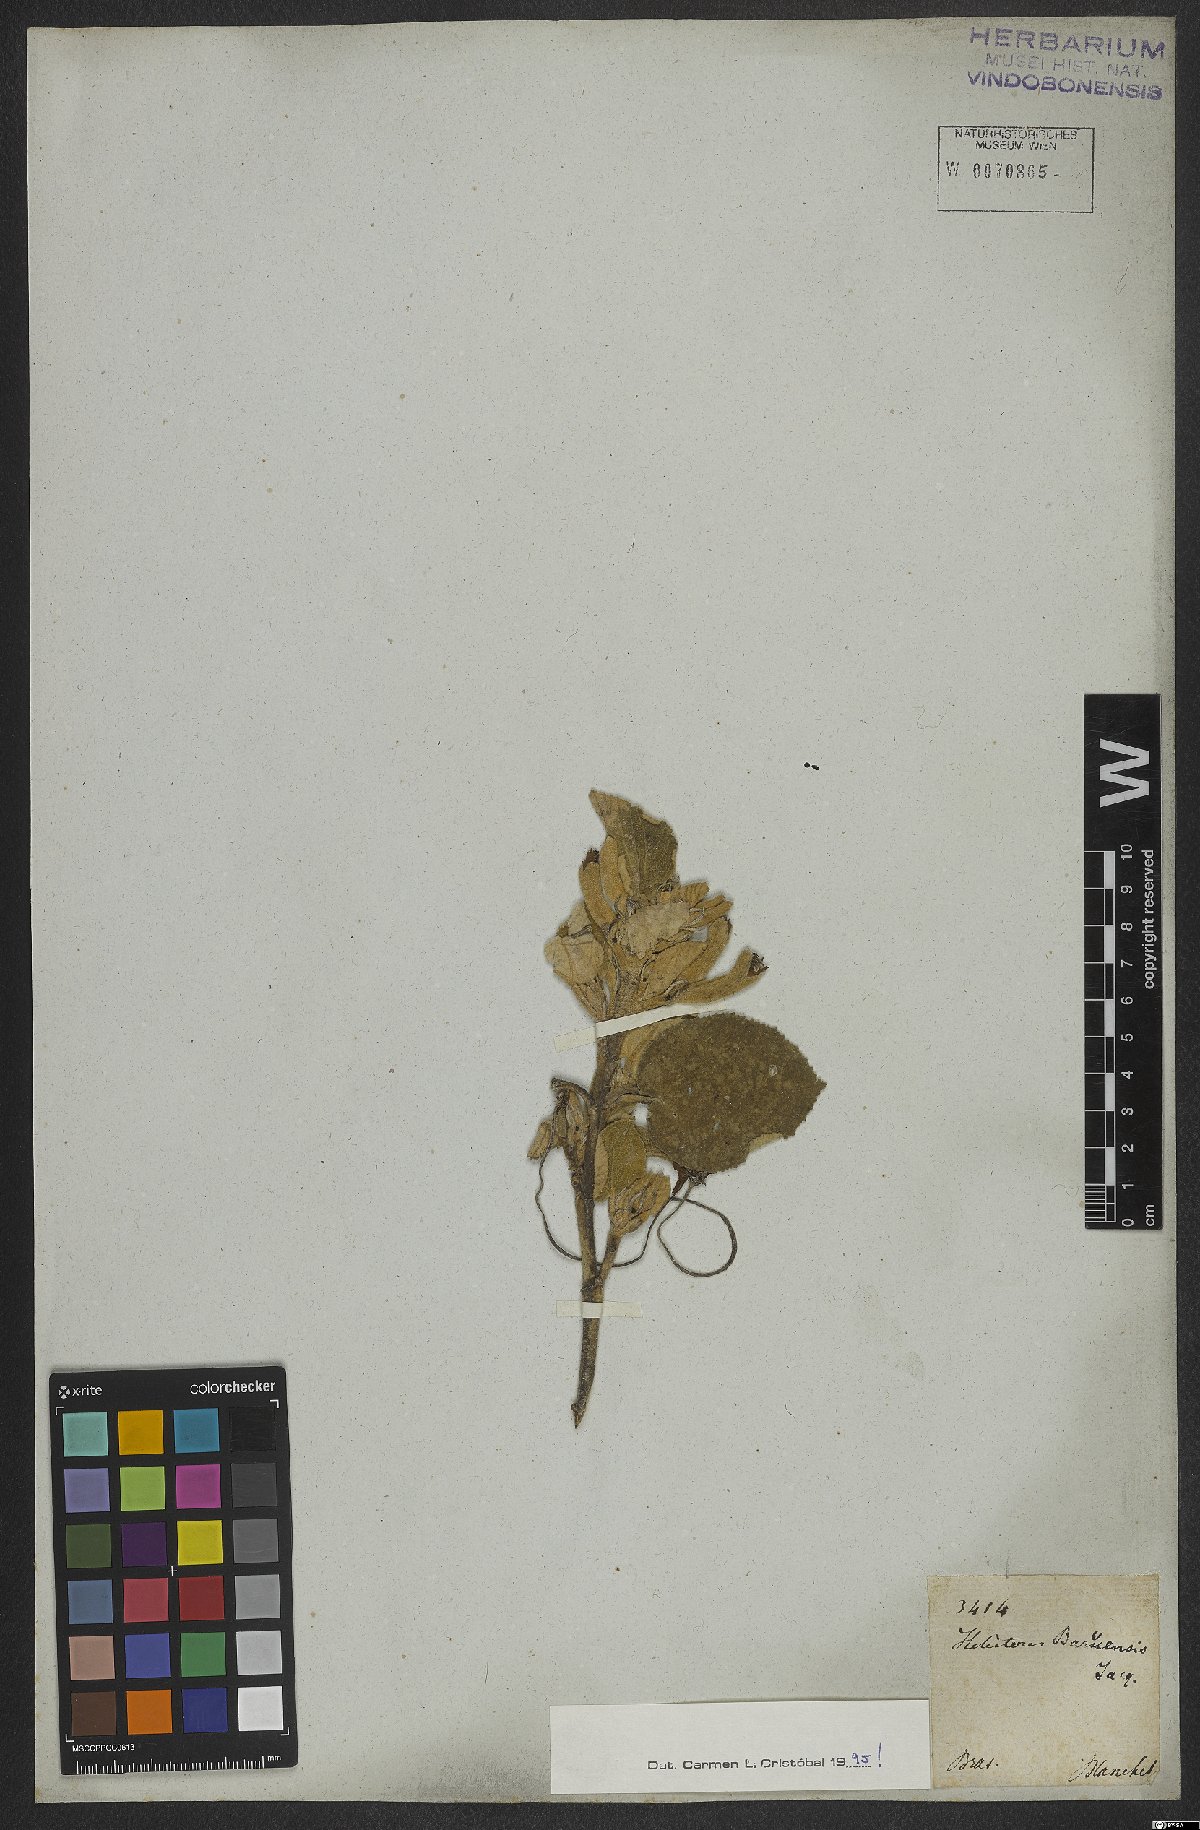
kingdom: Plantae
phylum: Tracheophyta
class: Magnoliopsida
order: Malvales
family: Malvaceae
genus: Helicteres
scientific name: Helicteres baruensis
